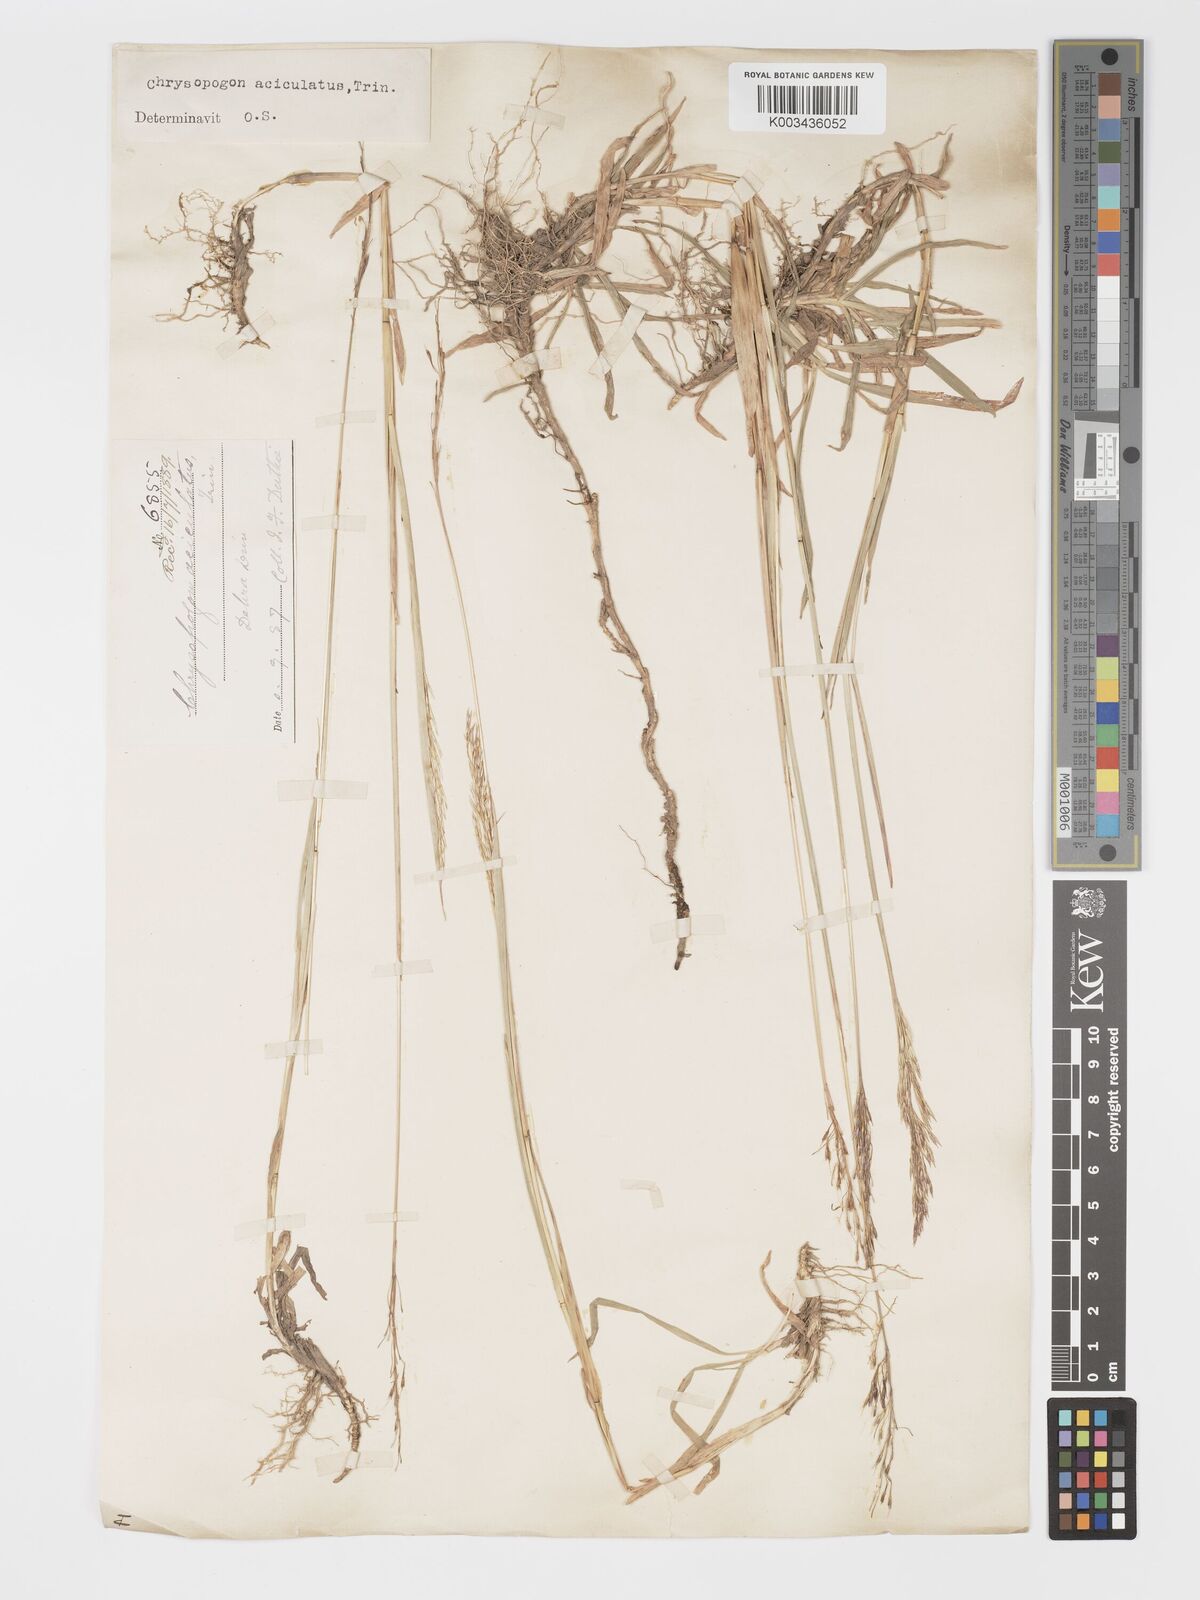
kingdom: Plantae
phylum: Tracheophyta
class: Liliopsida
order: Poales
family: Poaceae
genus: Chrysopogon
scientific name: Chrysopogon aciculatus
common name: Pilipiliula
